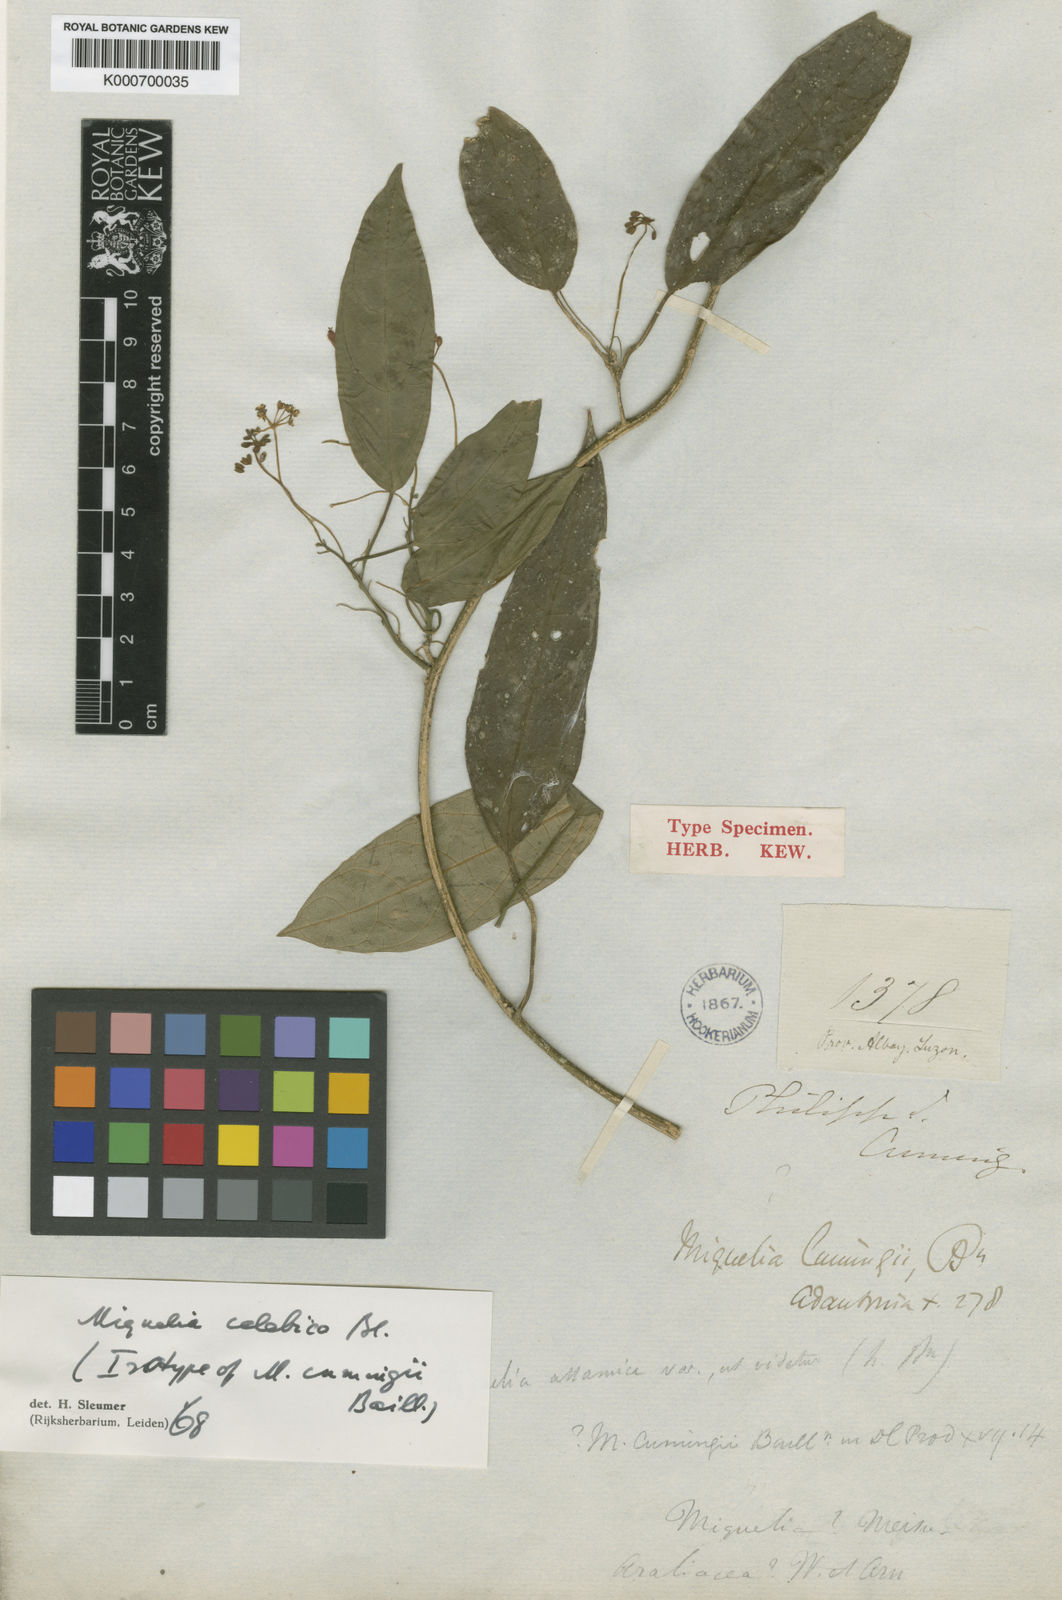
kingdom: Plantae
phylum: Tracheophyta
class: Magnoliopsida
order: Icacinales
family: Icacinaceae
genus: Miquelia
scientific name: Miquelia celebica
